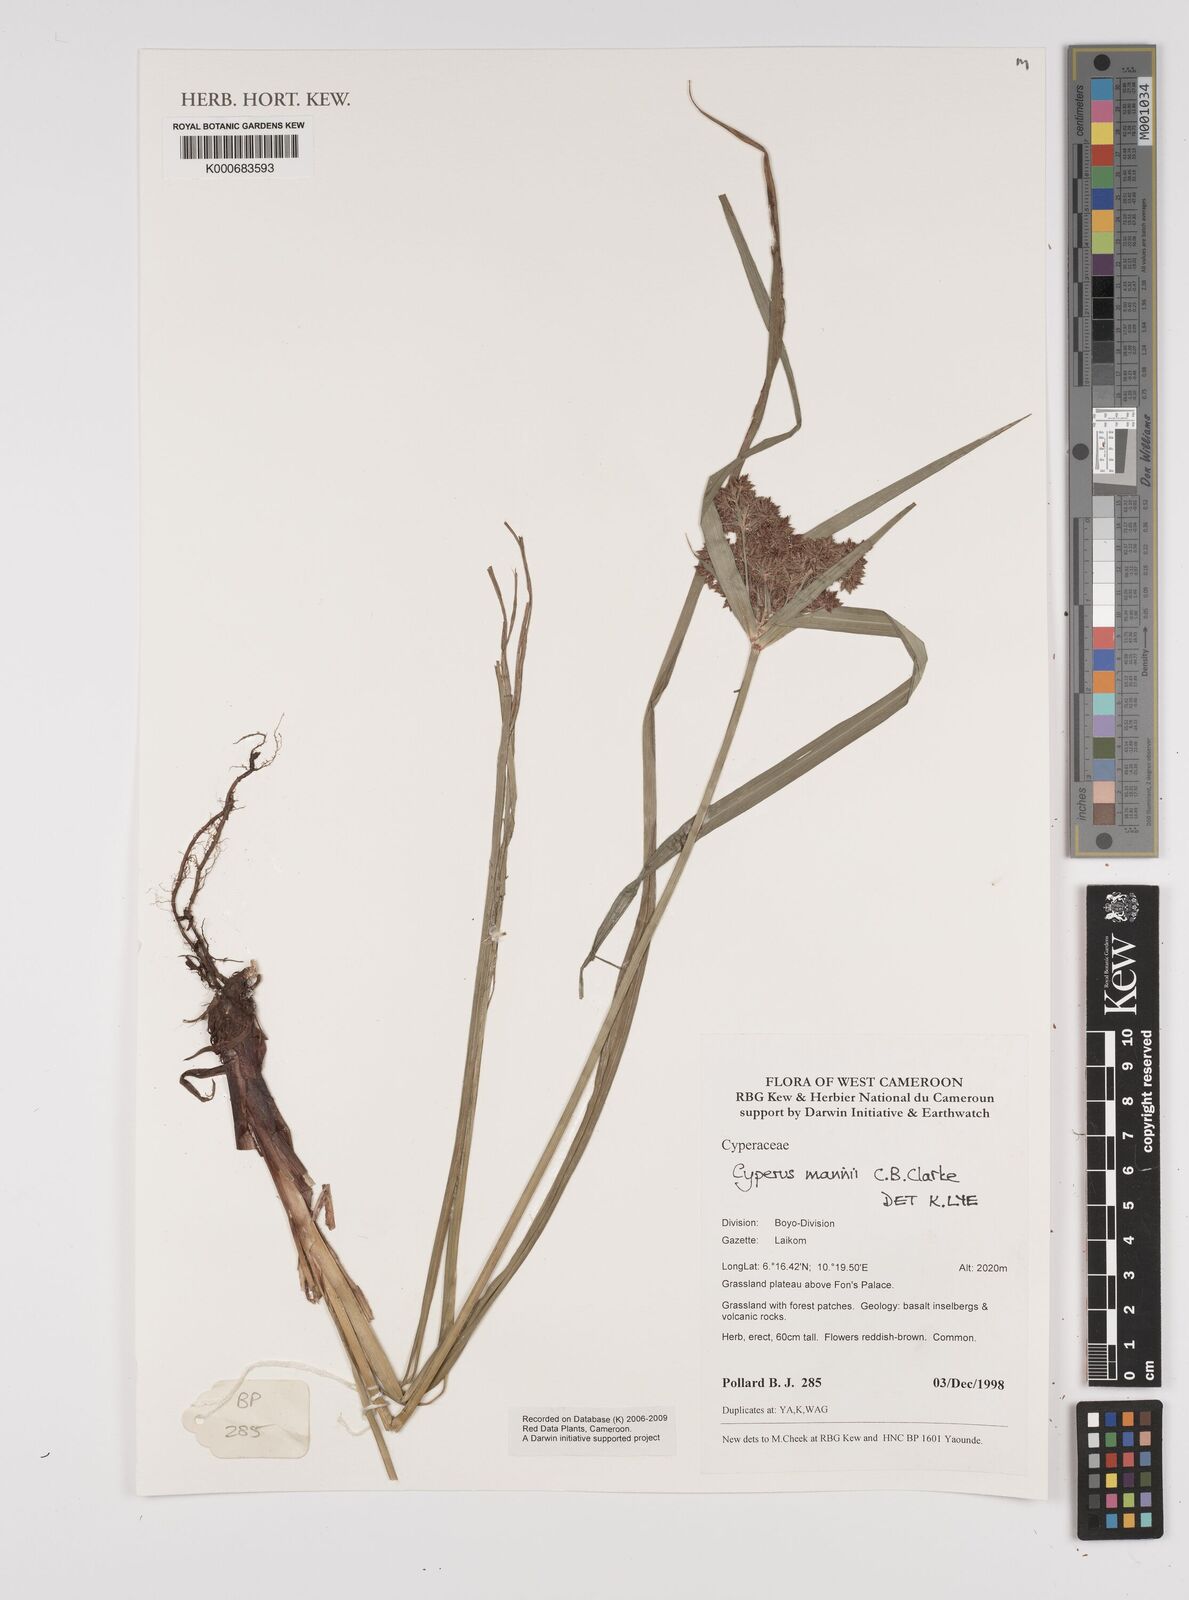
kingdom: Plantae
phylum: Tracheophyta
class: Liliopsida
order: Poales
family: Cyperaceae
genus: Cyperus
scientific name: Cyperus baronii
